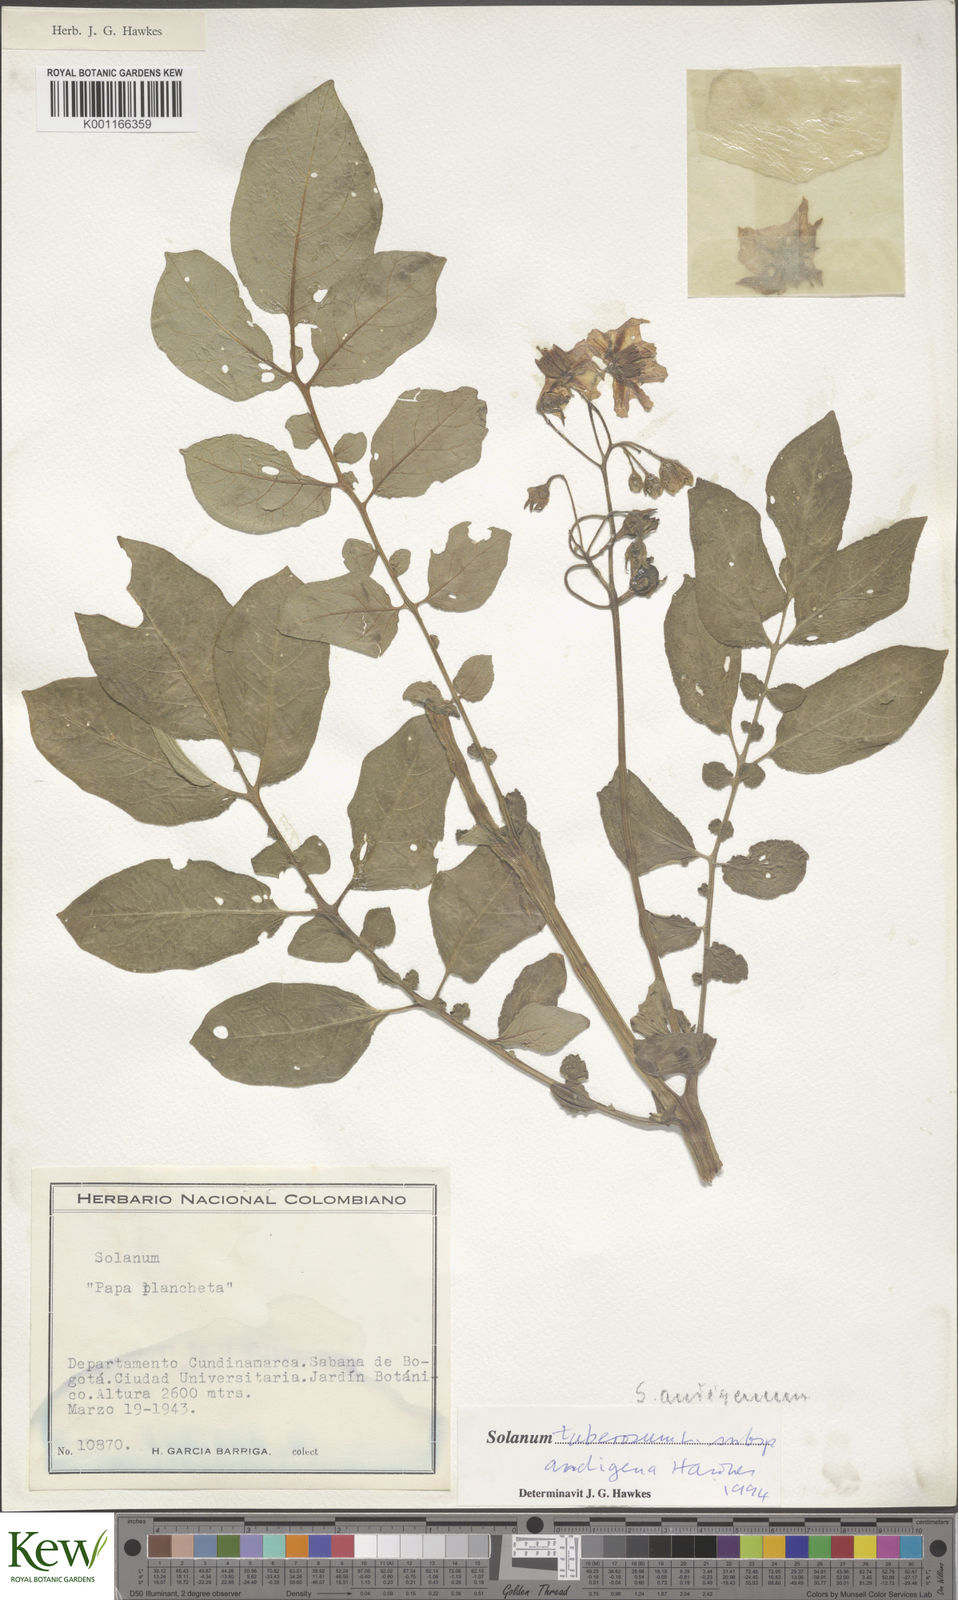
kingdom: Plantae
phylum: Tracheophyta
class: Magnoliopsida
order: Solanales
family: Solanaceae
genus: Solanum
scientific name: Solanum tuberosum
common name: Potato
